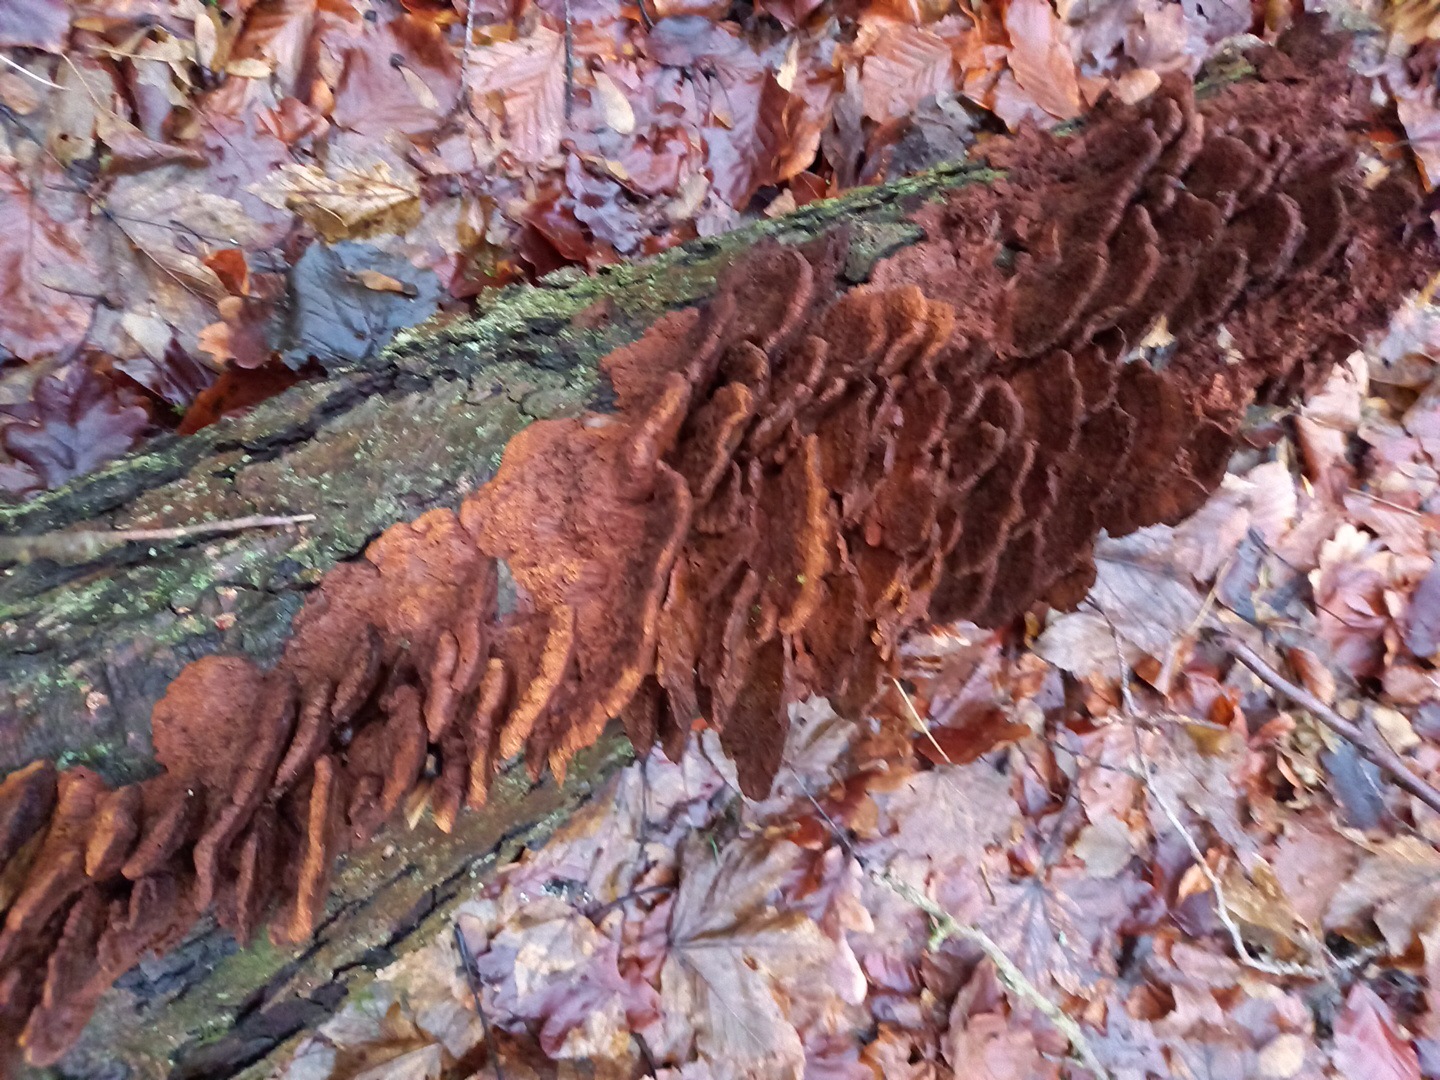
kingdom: Fungi
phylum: Basidiomycota
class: Agaricomycetes
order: Hymenochaetales
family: Hymenochaetaceae
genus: Xanthoporia
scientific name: Xanthoporia radiata
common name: elle-spejlporesvamp
